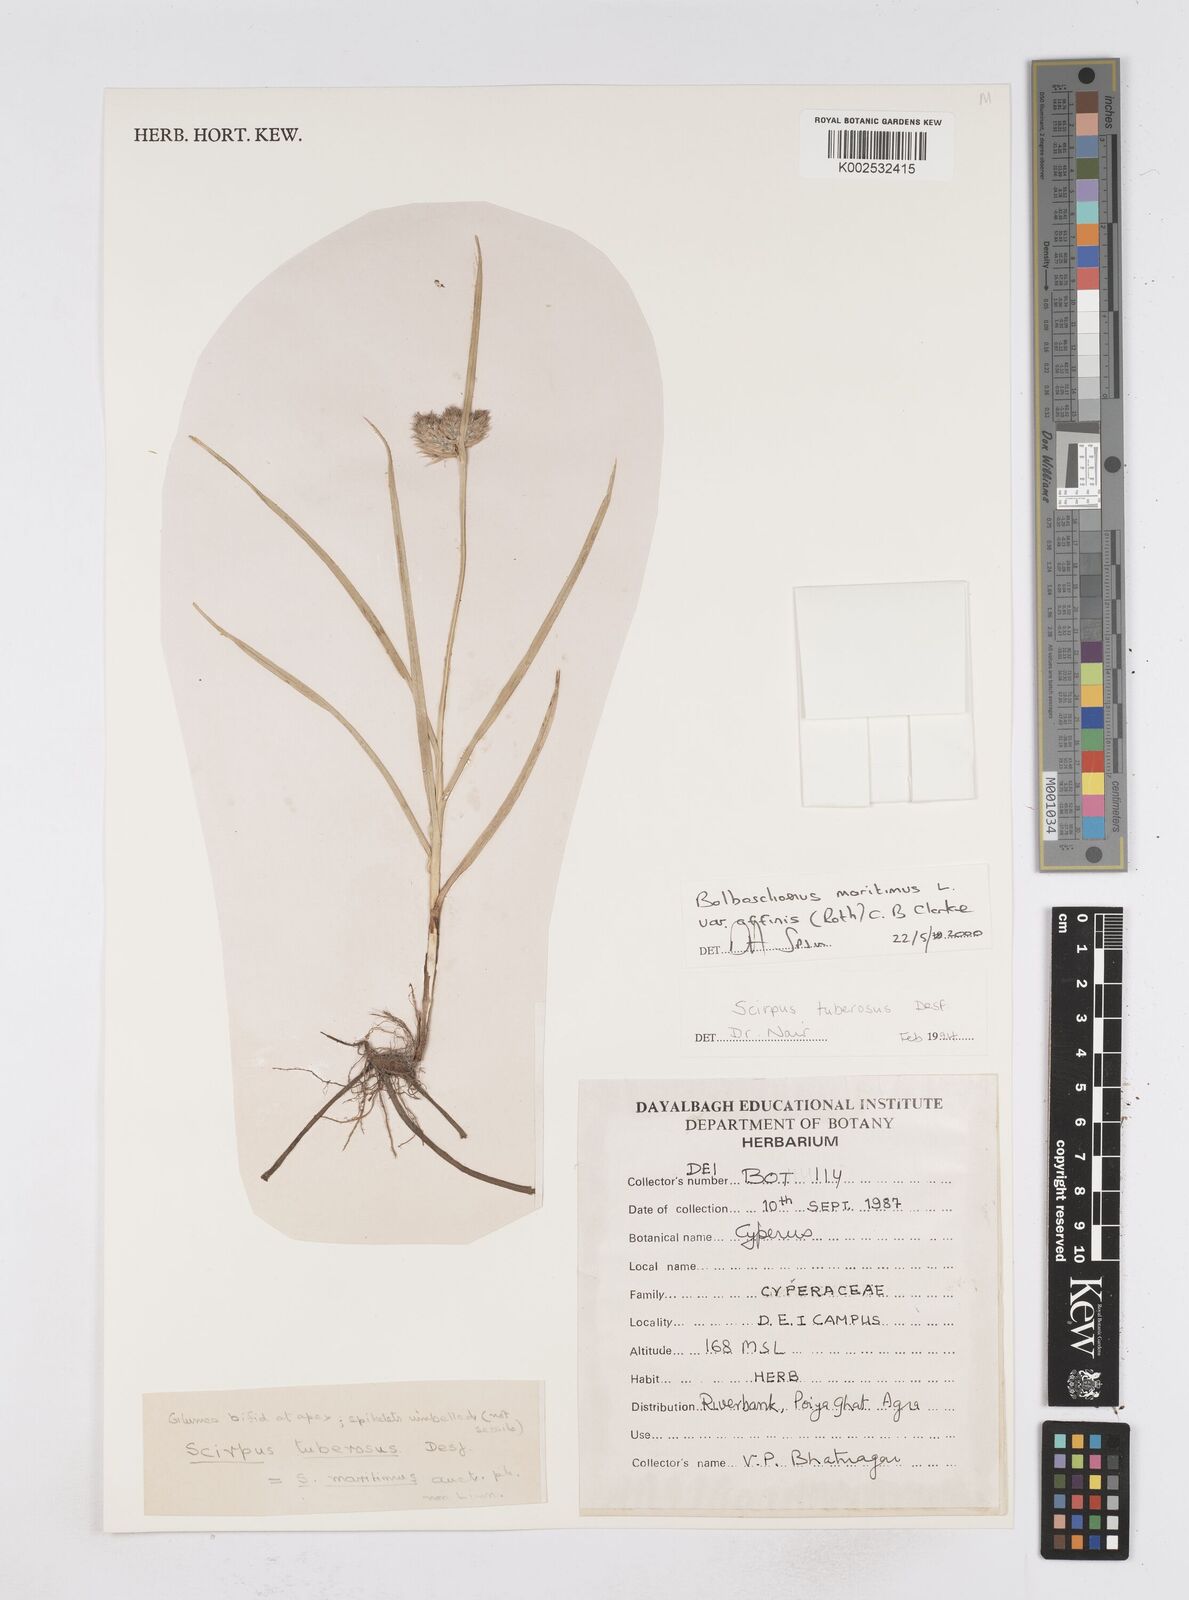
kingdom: Plantae
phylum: Tracheophyta
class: Liliopsida
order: Poales
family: Cyperaceae
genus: Bolboschoenus
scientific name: Bolboschoenus maritimus
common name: Sea club-rush
